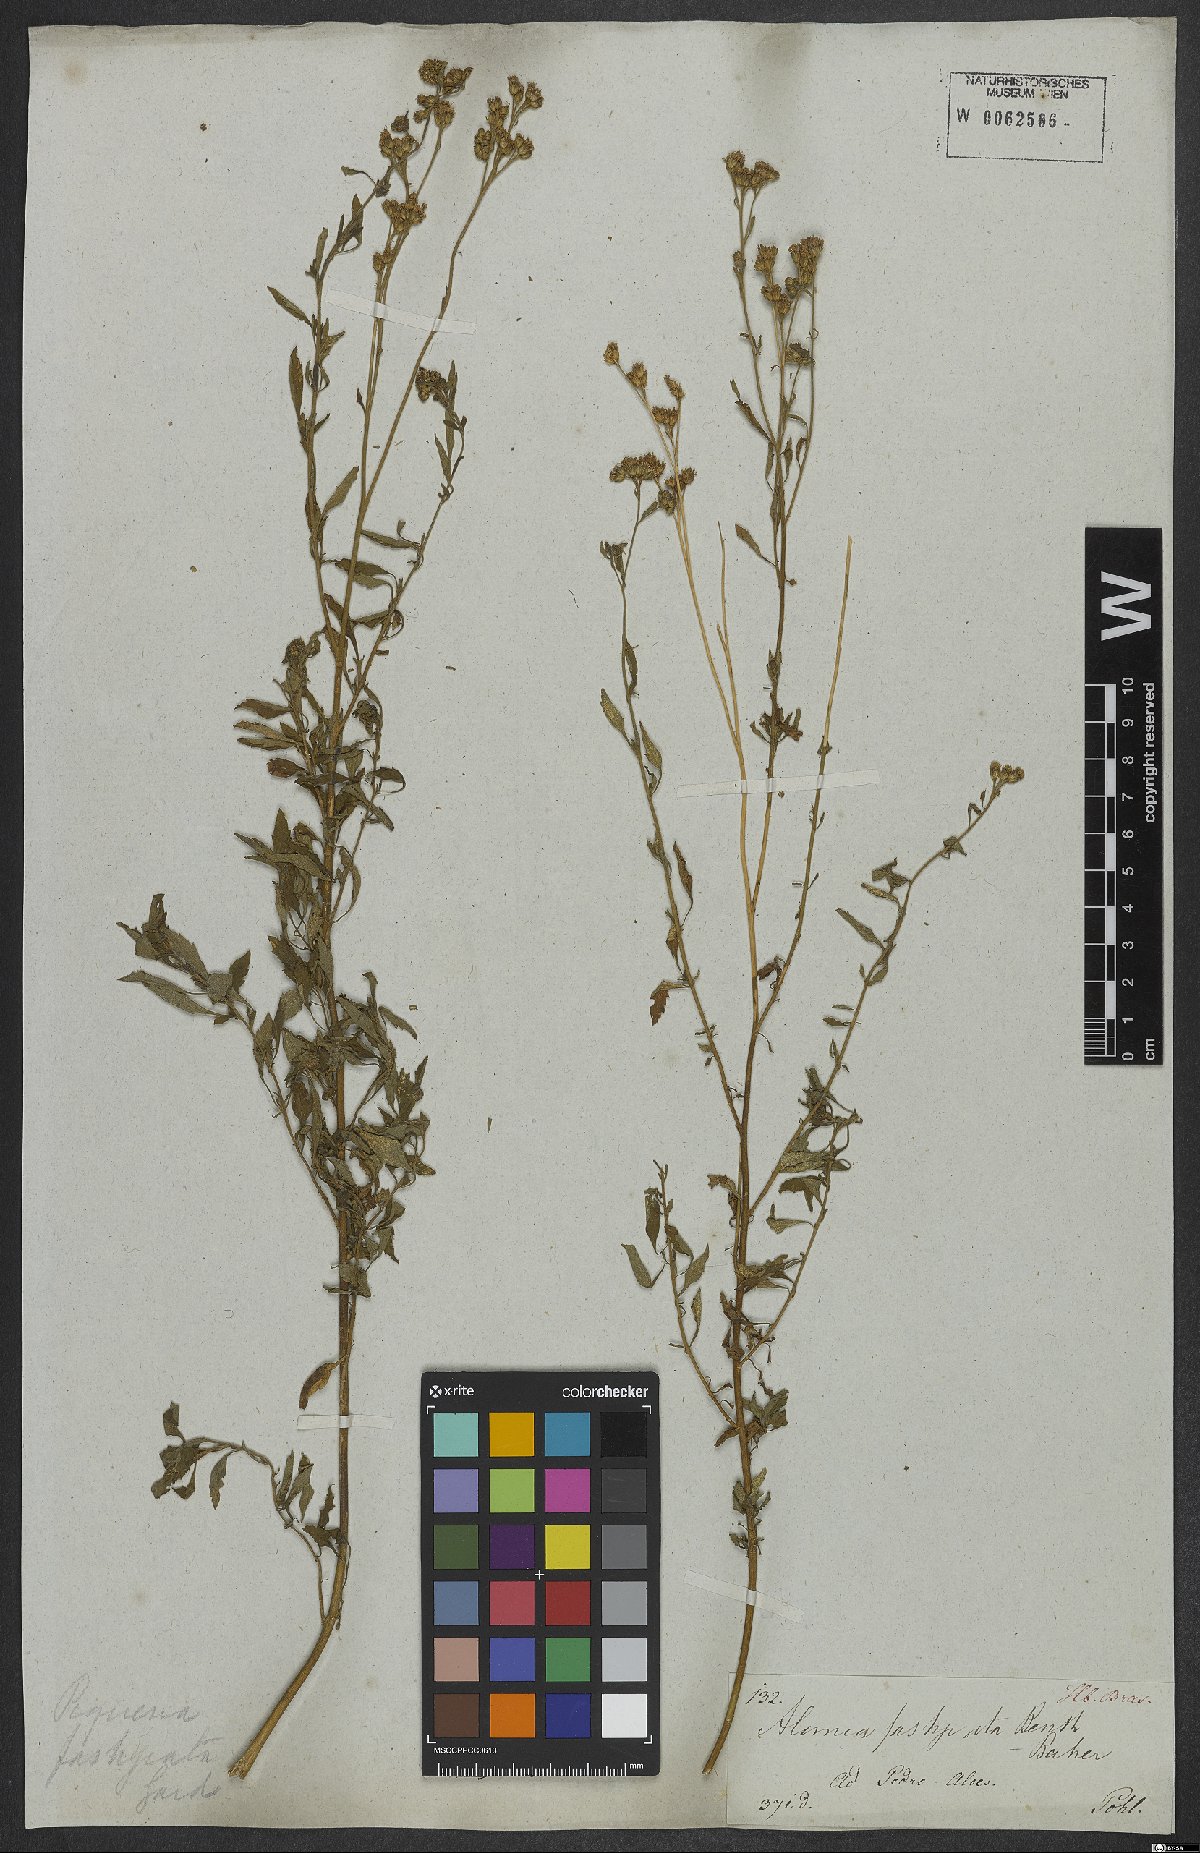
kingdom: Plantae
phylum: Tracheophyta
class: Magnoliopsida
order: Asterales
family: Asteraceae
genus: Ageratum
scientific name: Ageratum fastigiatum
